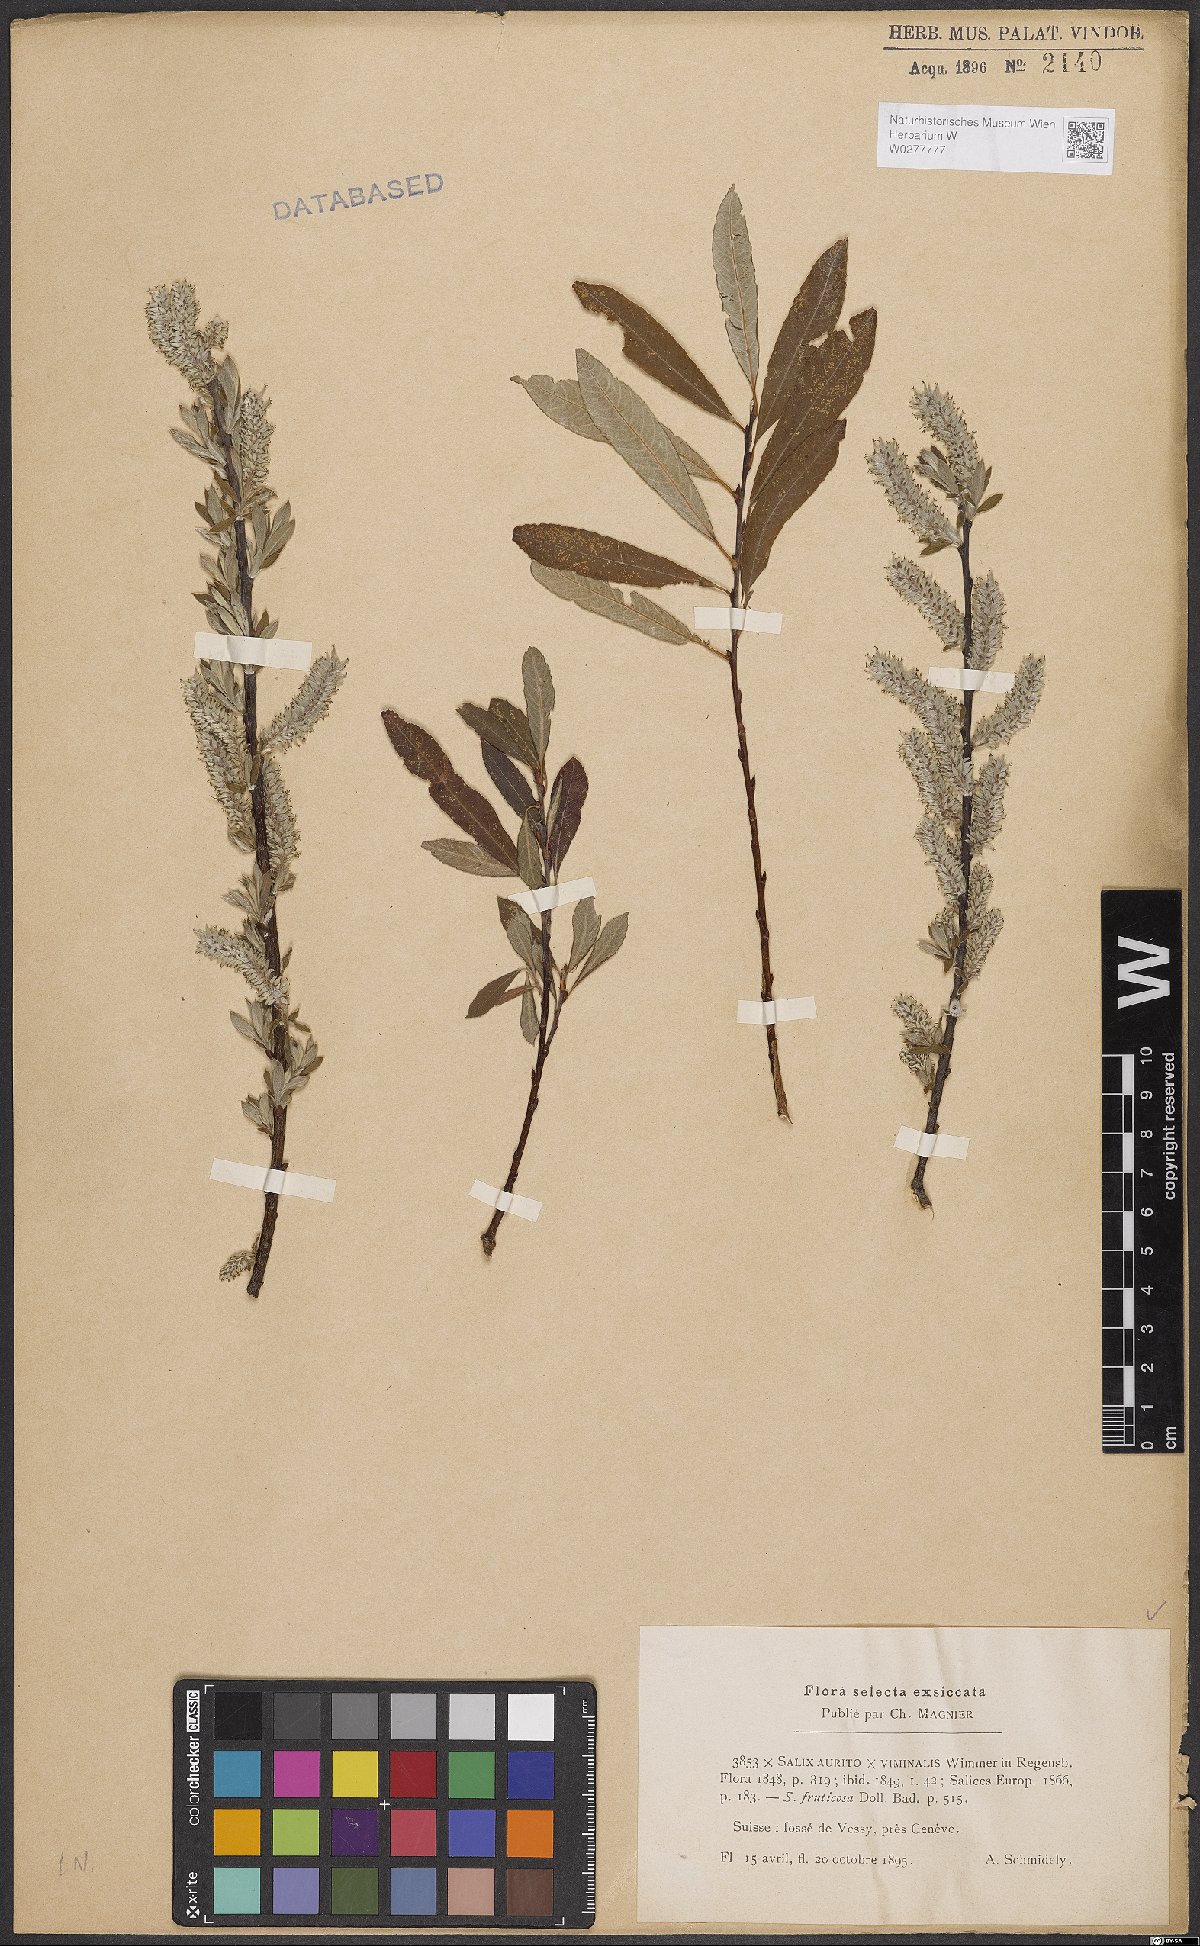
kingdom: Plantae
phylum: Tracheophyta
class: Magnoliopsida
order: Malpighiales
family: Salicaceae
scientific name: Salicaceae
